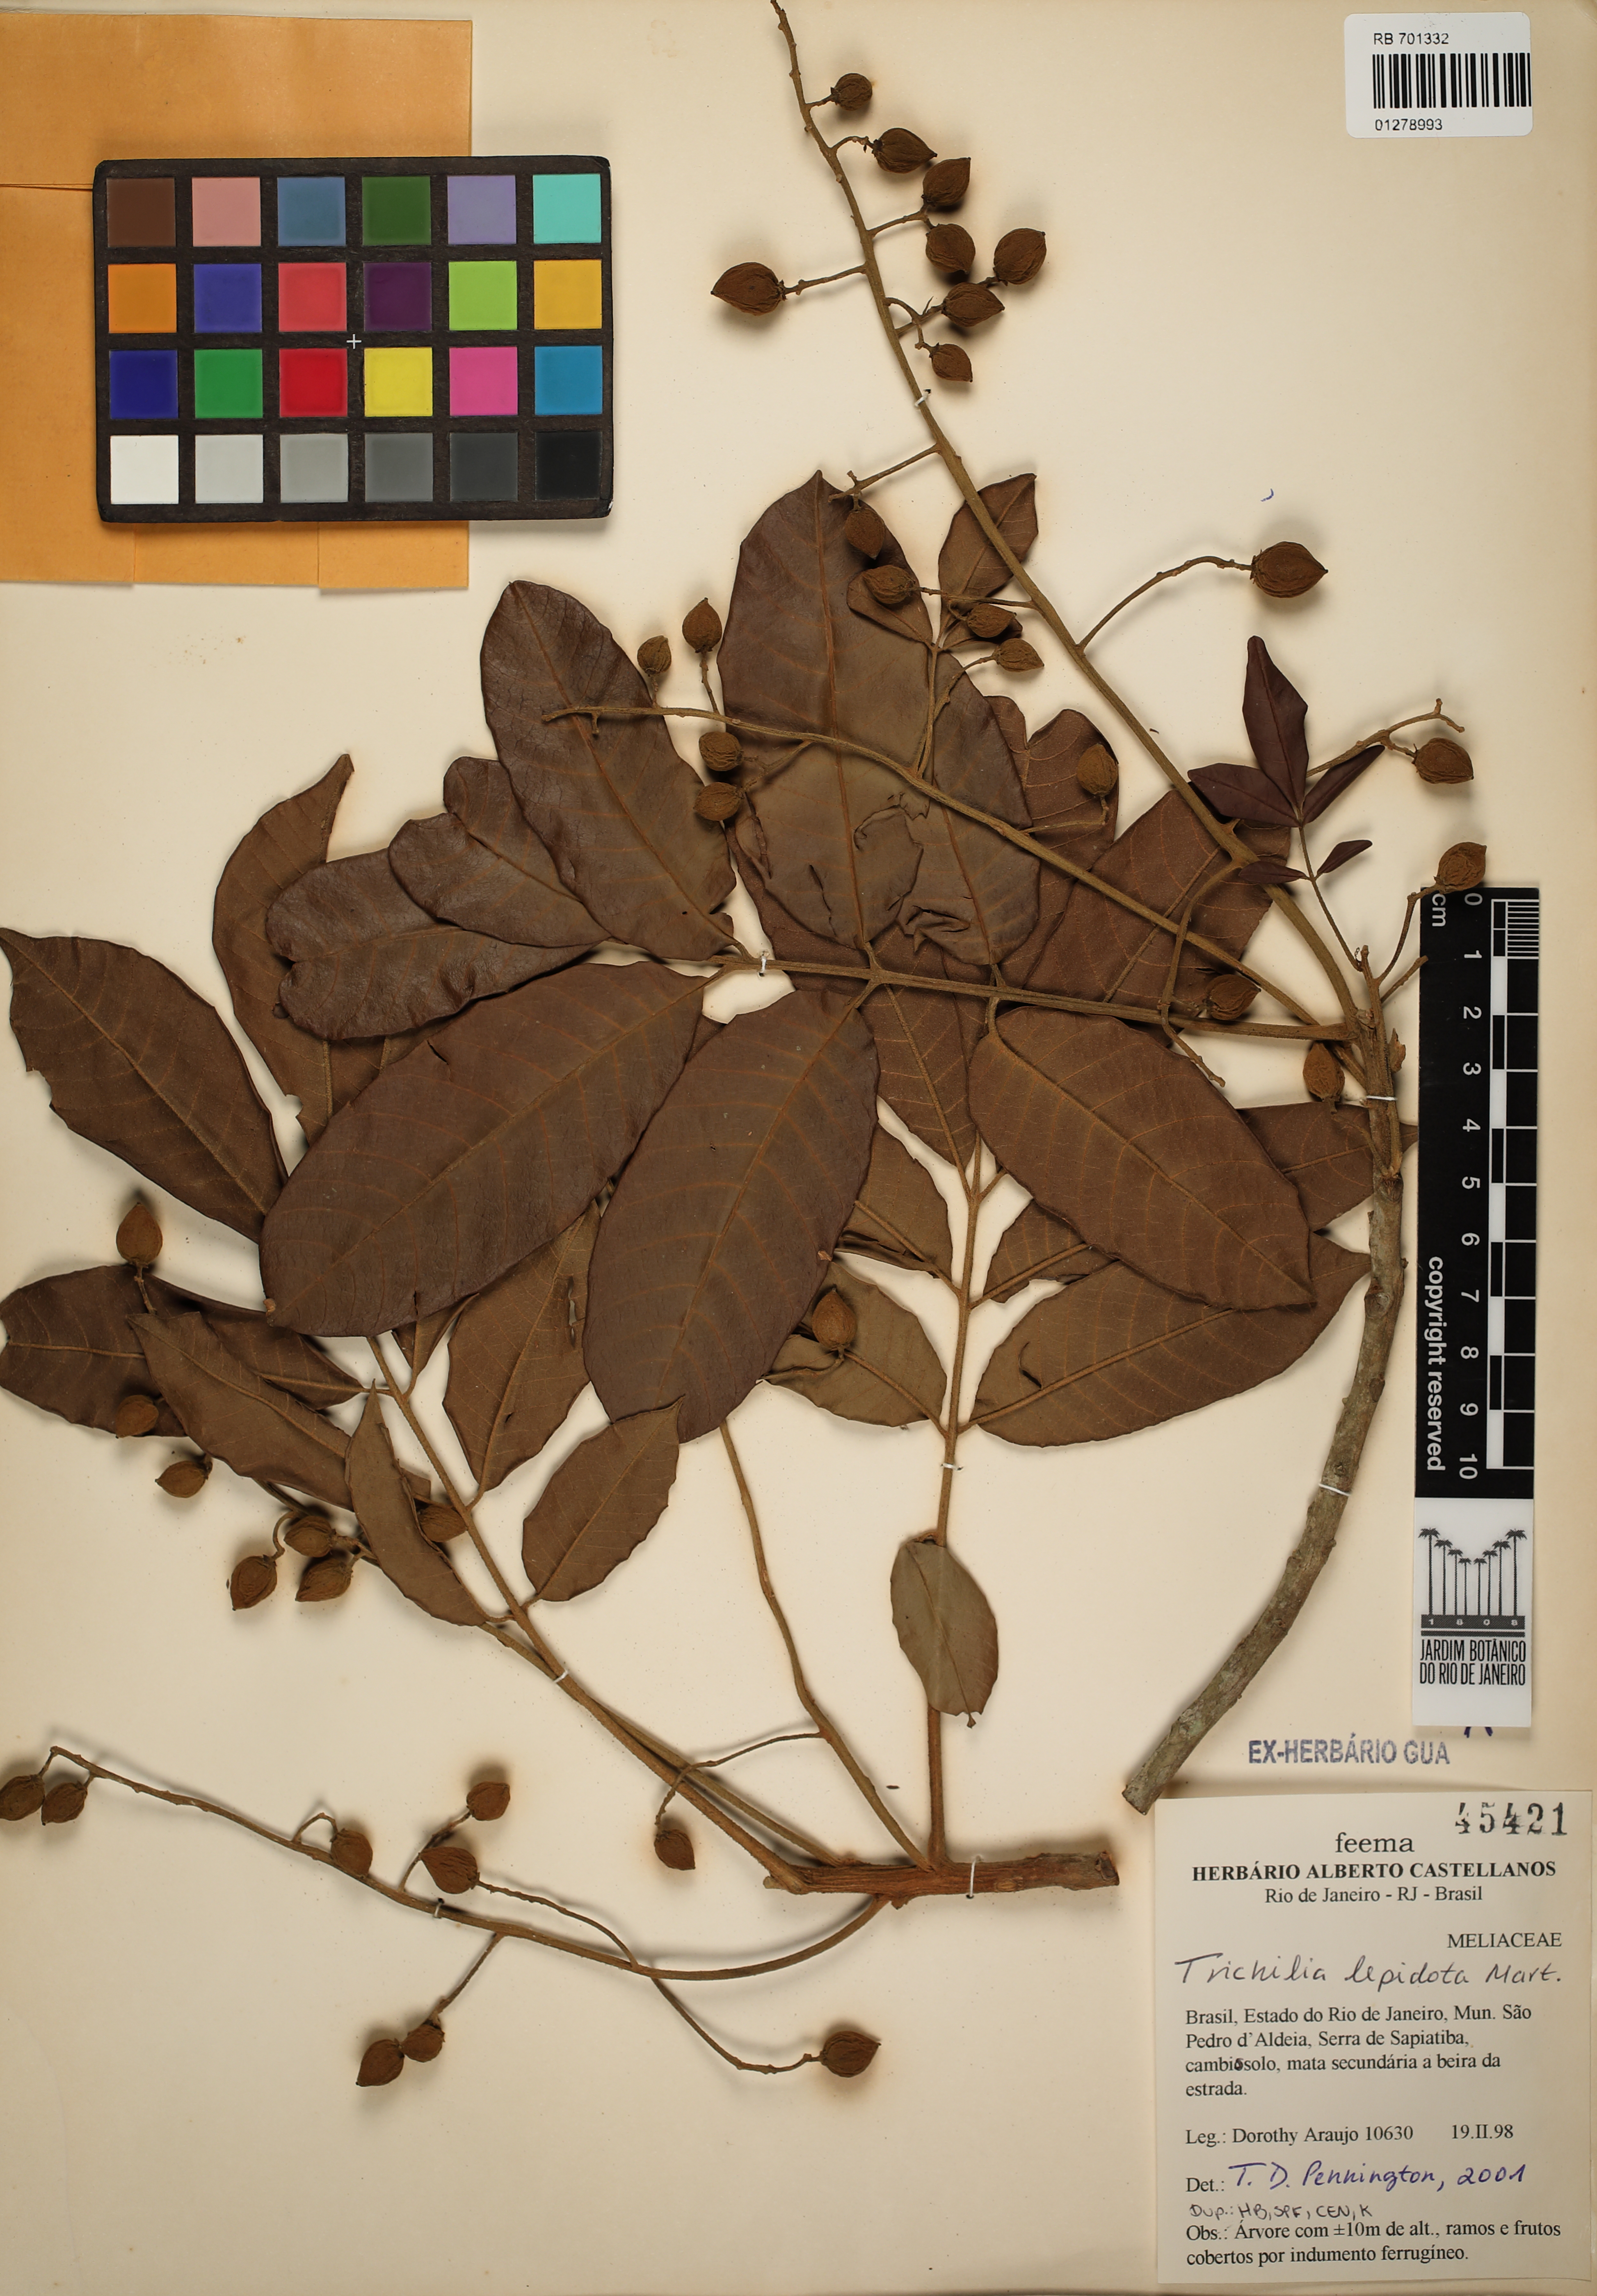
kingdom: Plantae
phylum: Tracheophyta
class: Magnoliopsida
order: Sapindales
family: Meliaceae
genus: Trichilia
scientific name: Trichilia lepidota
